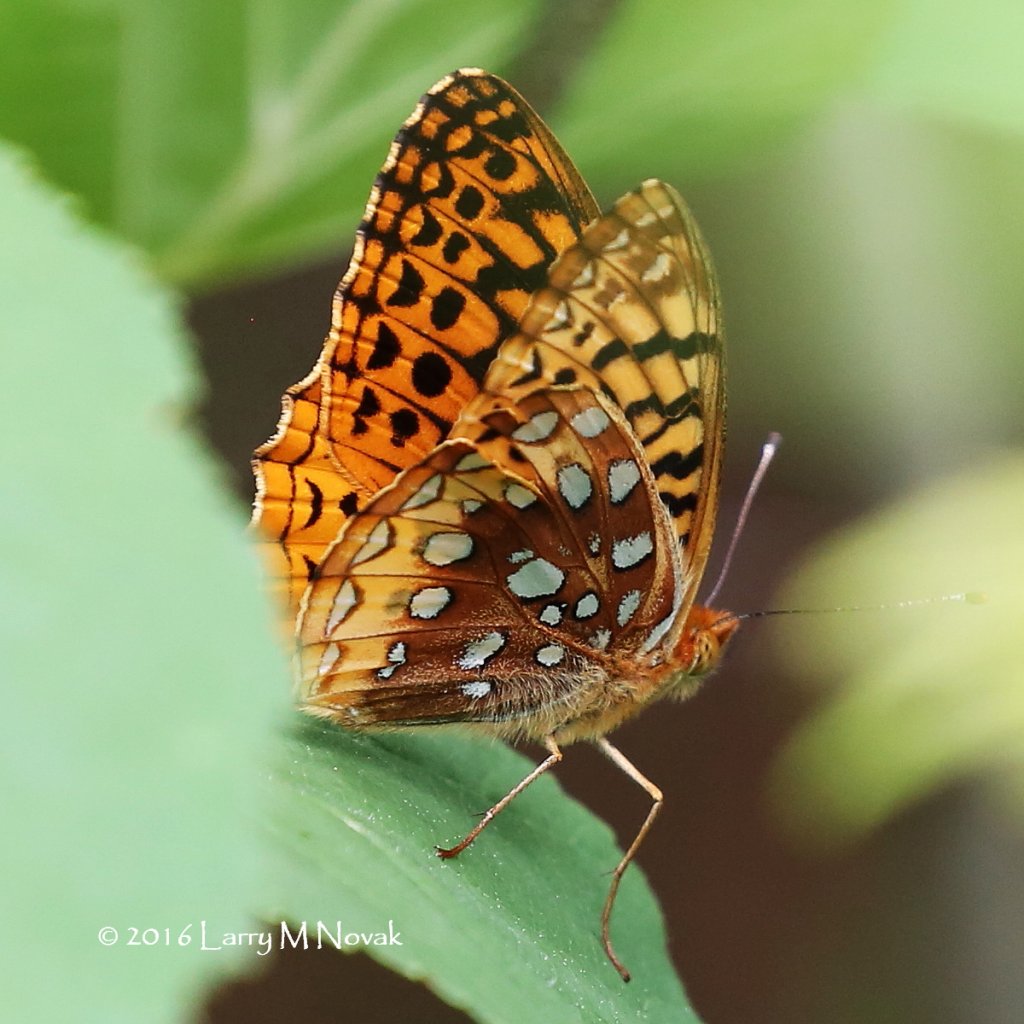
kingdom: Animalia
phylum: Arthropoda
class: Insecta
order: Lepidoptera
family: Nymphalidae
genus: Speyeria
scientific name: Speyeria cybele
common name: Great Spangled Fritillary
